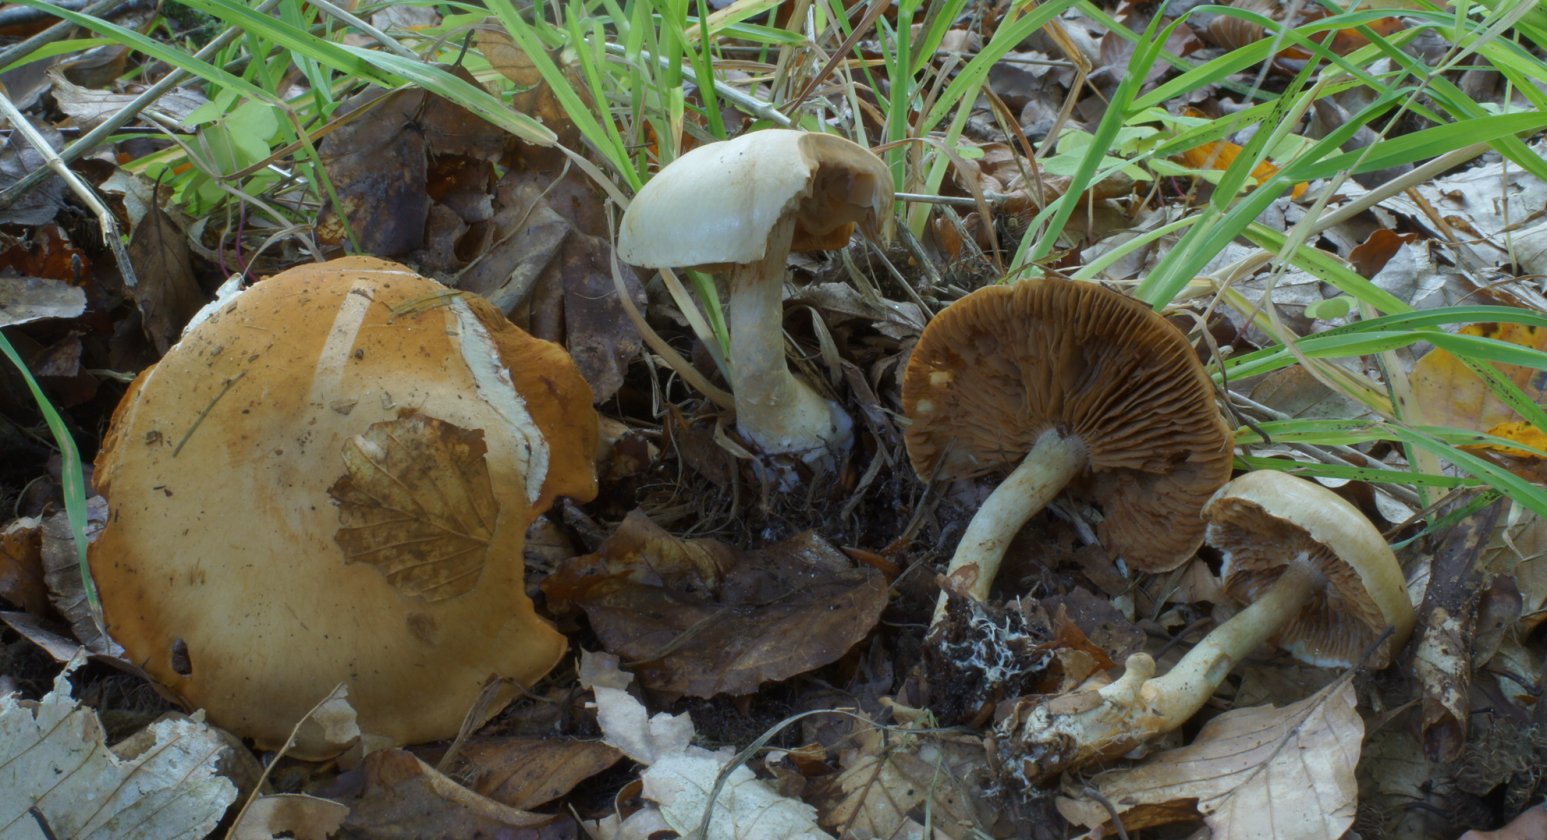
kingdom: Fungi
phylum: Basidiomycota
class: Agaricomycetes
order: Agaricales
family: Cortinariaceae
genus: Cortinarius
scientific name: Cortinarius anomalus
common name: Variable webcap
